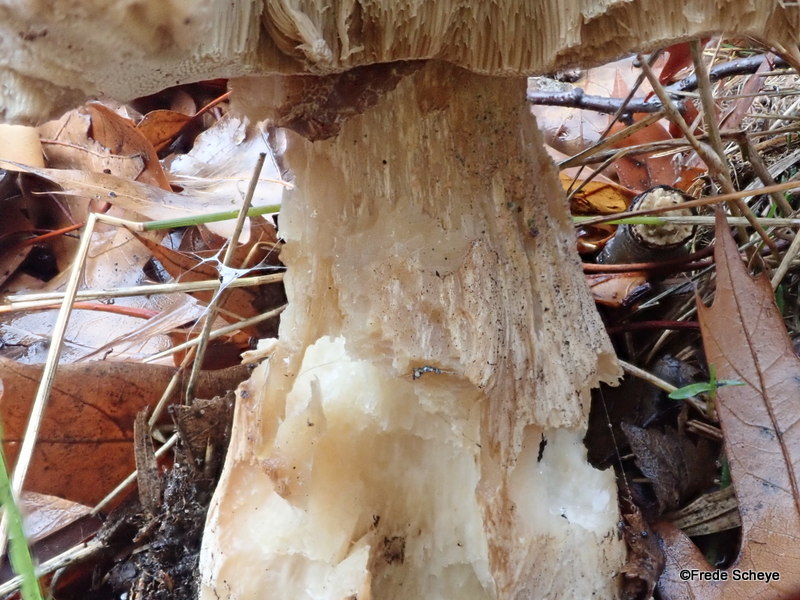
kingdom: Fungi
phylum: Basidiomycota
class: Agaricomycetes
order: Boletales
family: Boletaceae
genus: Boletus
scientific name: Boletus edulis
